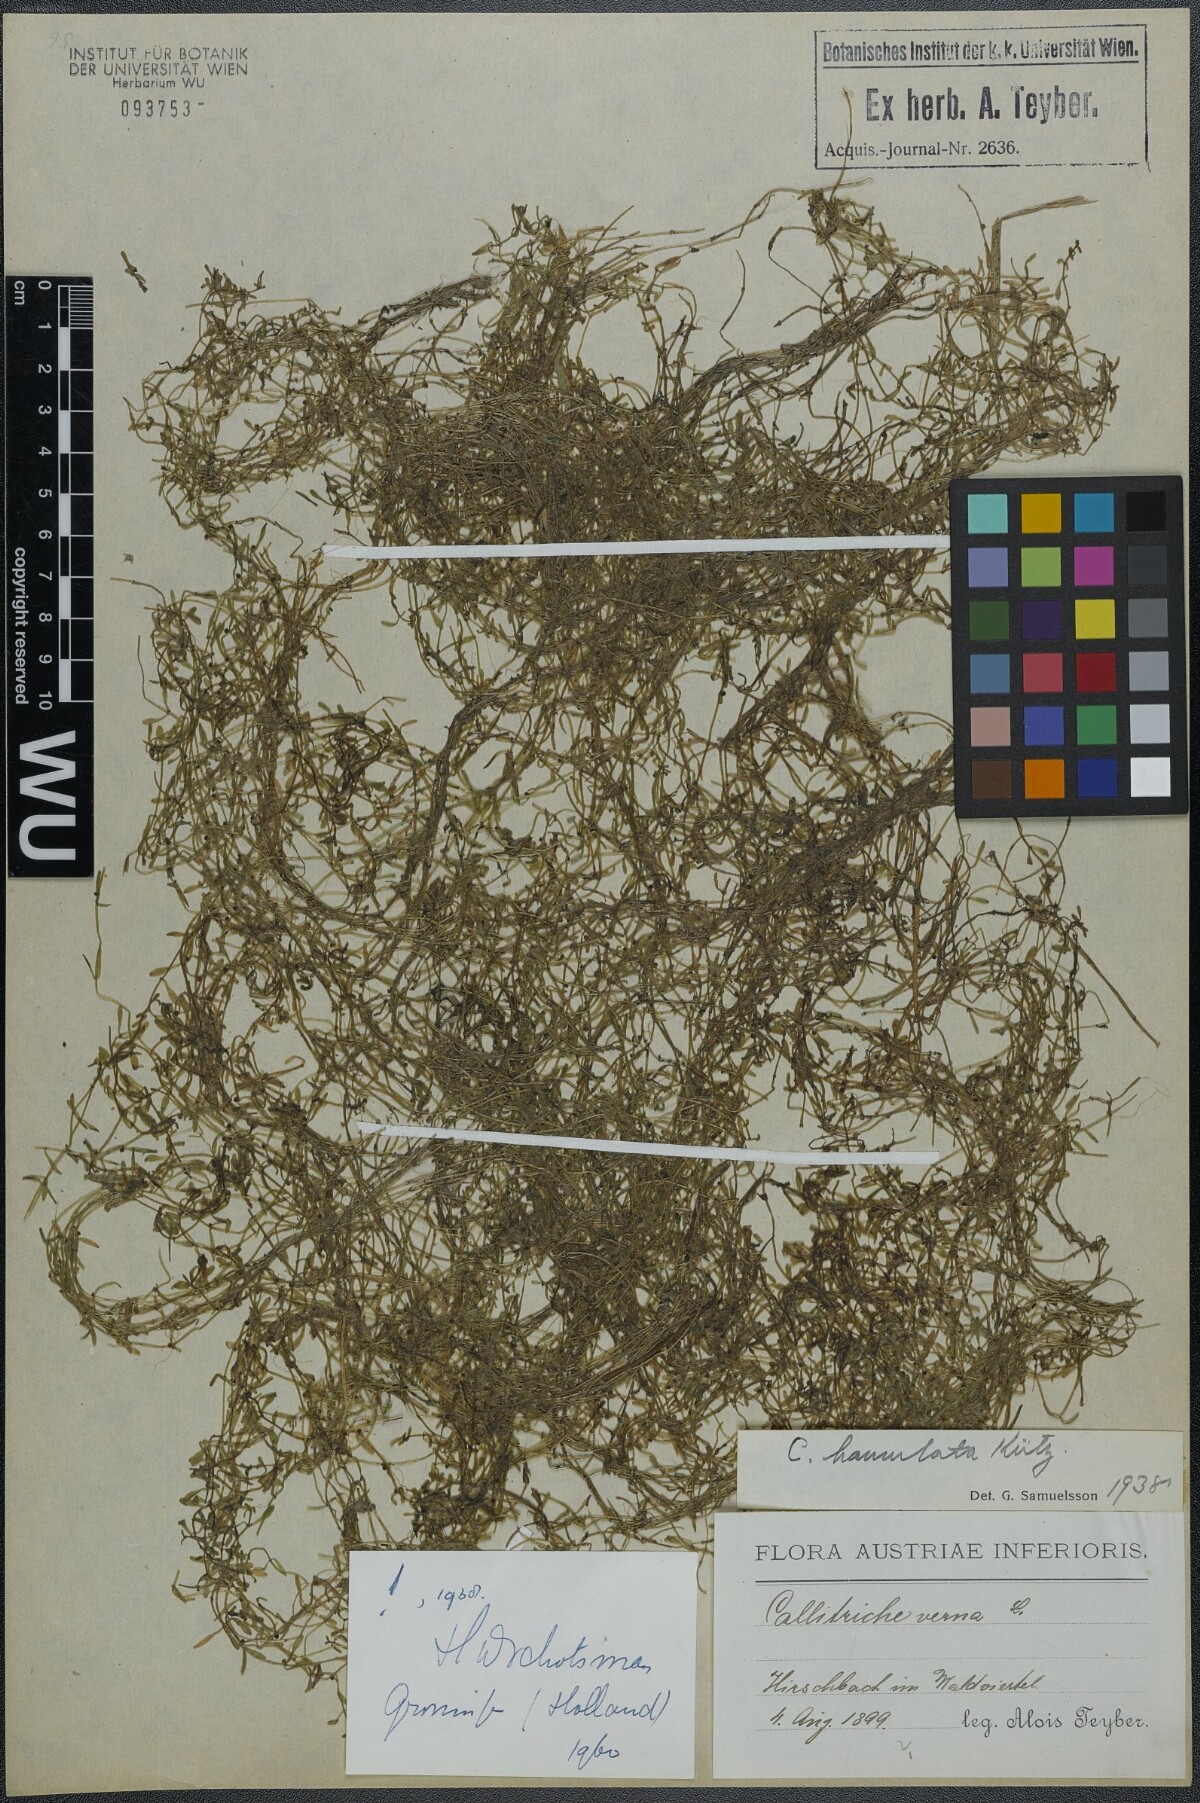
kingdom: Plantae
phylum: Tracheophyta
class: Magnoliopsida
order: Lamiales
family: Plantaginaceae
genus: Callitriche
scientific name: Callitriche hamulata
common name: Intermediate water-starwort
